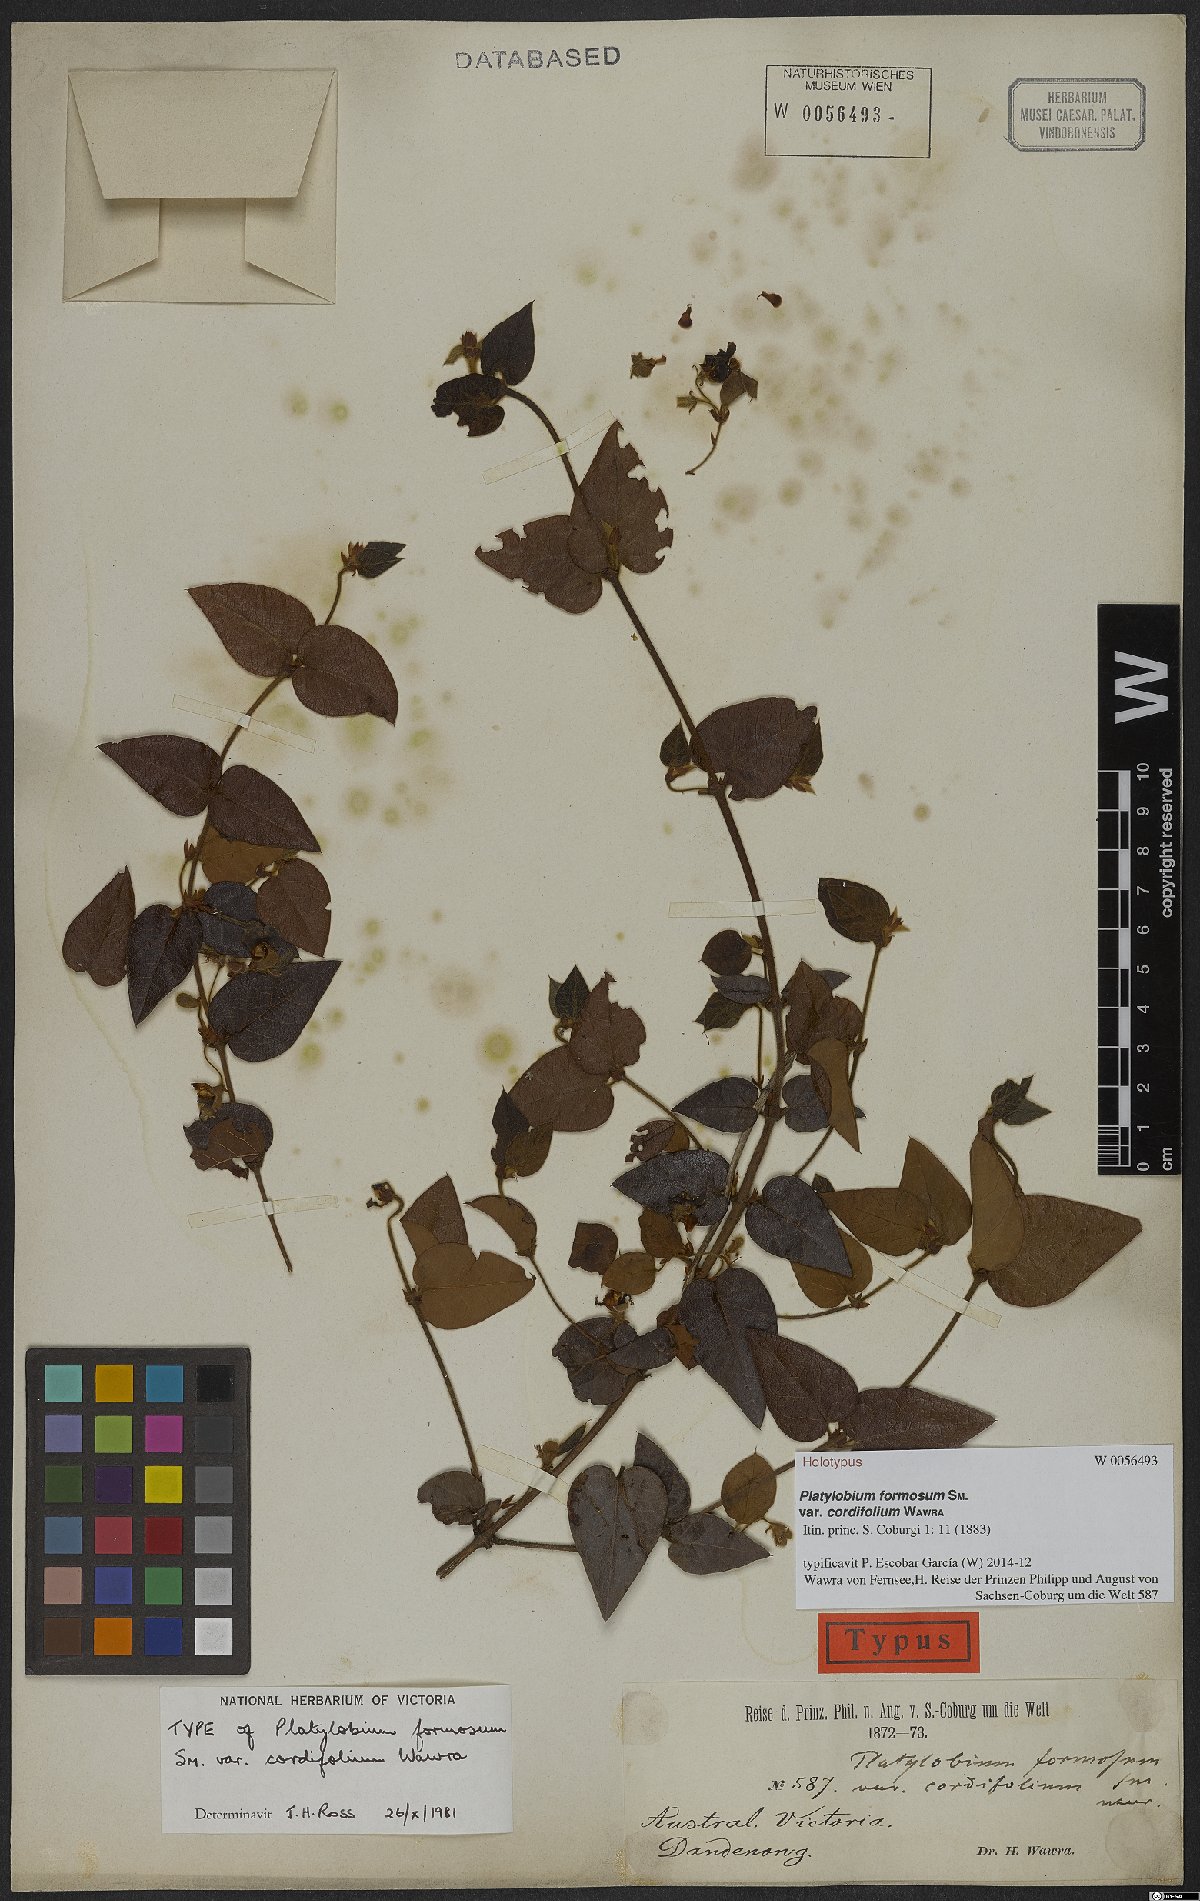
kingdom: Plantae
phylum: Tracheophyta
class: Magnoliopsida
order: Fabales
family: Fabaceae
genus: Platylobium
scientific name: Platylobium reflexum
